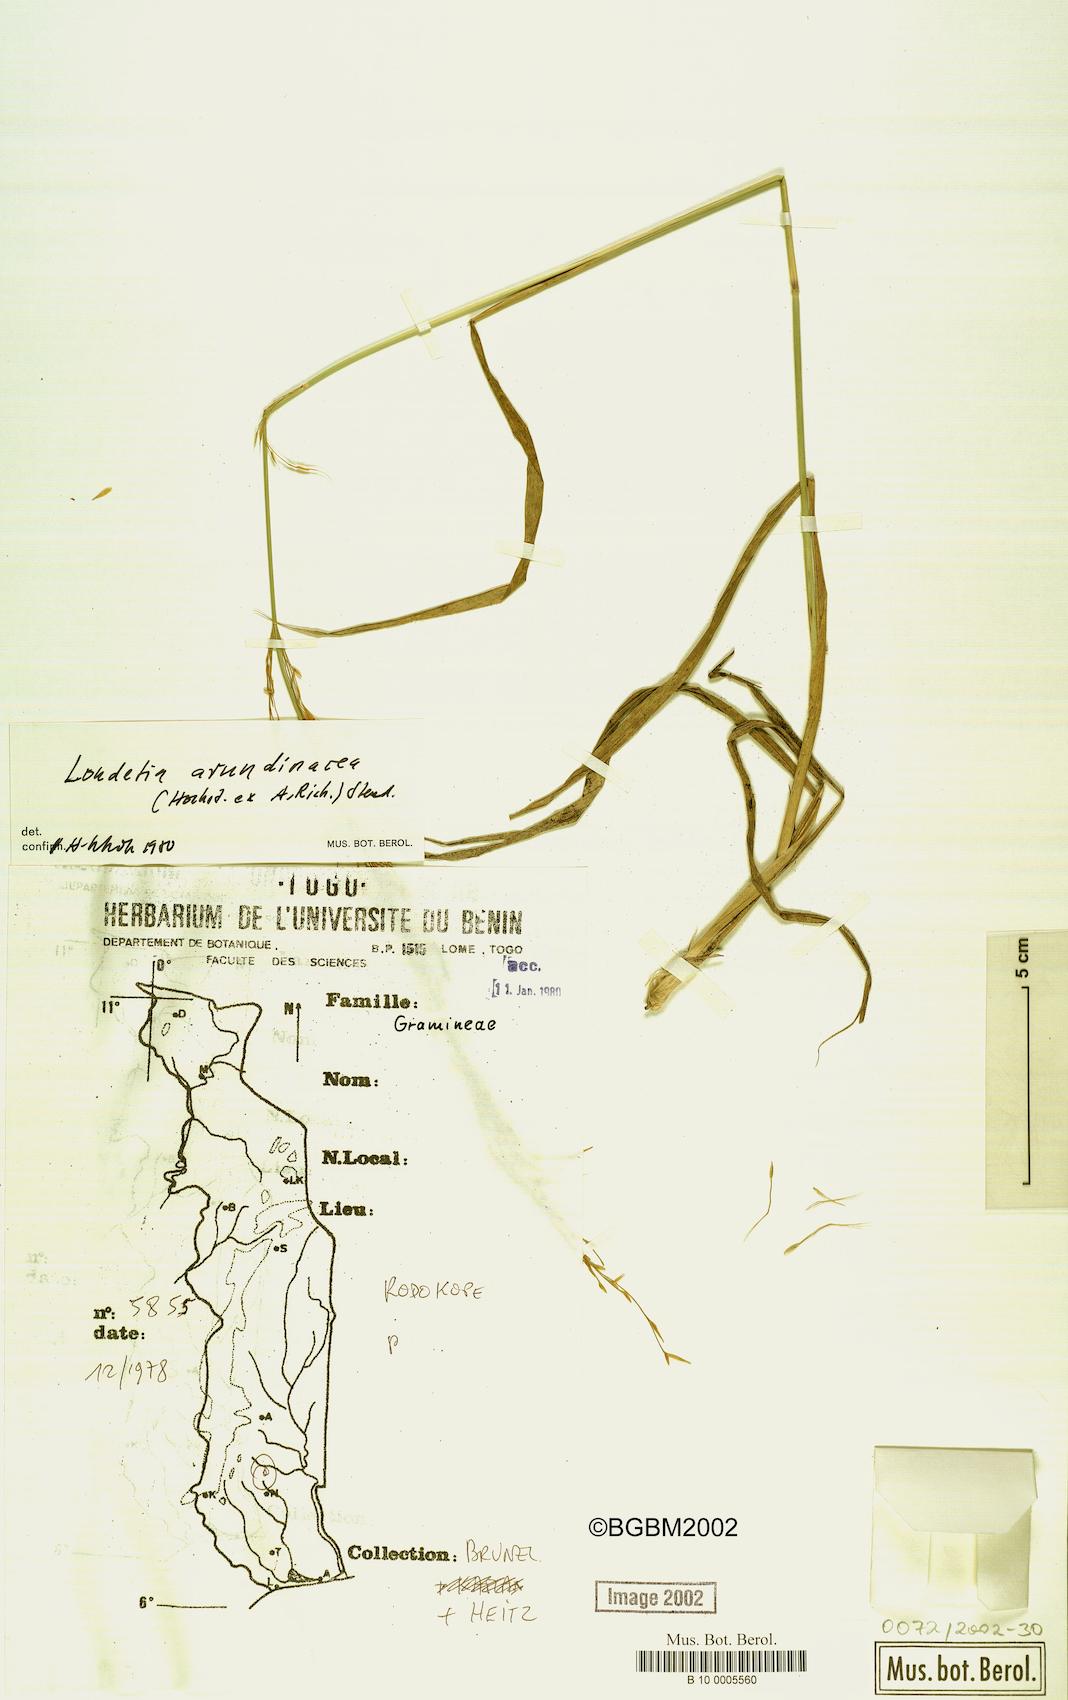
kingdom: Plantae
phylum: Tracheophyta
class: Liliopsida
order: Poales
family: Poaceae
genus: Loudetia
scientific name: Loudetia arundinacea
